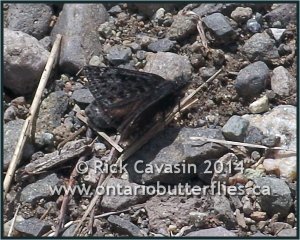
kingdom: Animalia
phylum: Arthropoda
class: Insecta
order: Lepidoptera
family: Hesperiidae
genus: Gesta
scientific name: Gesta
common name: Persius Duskywing
